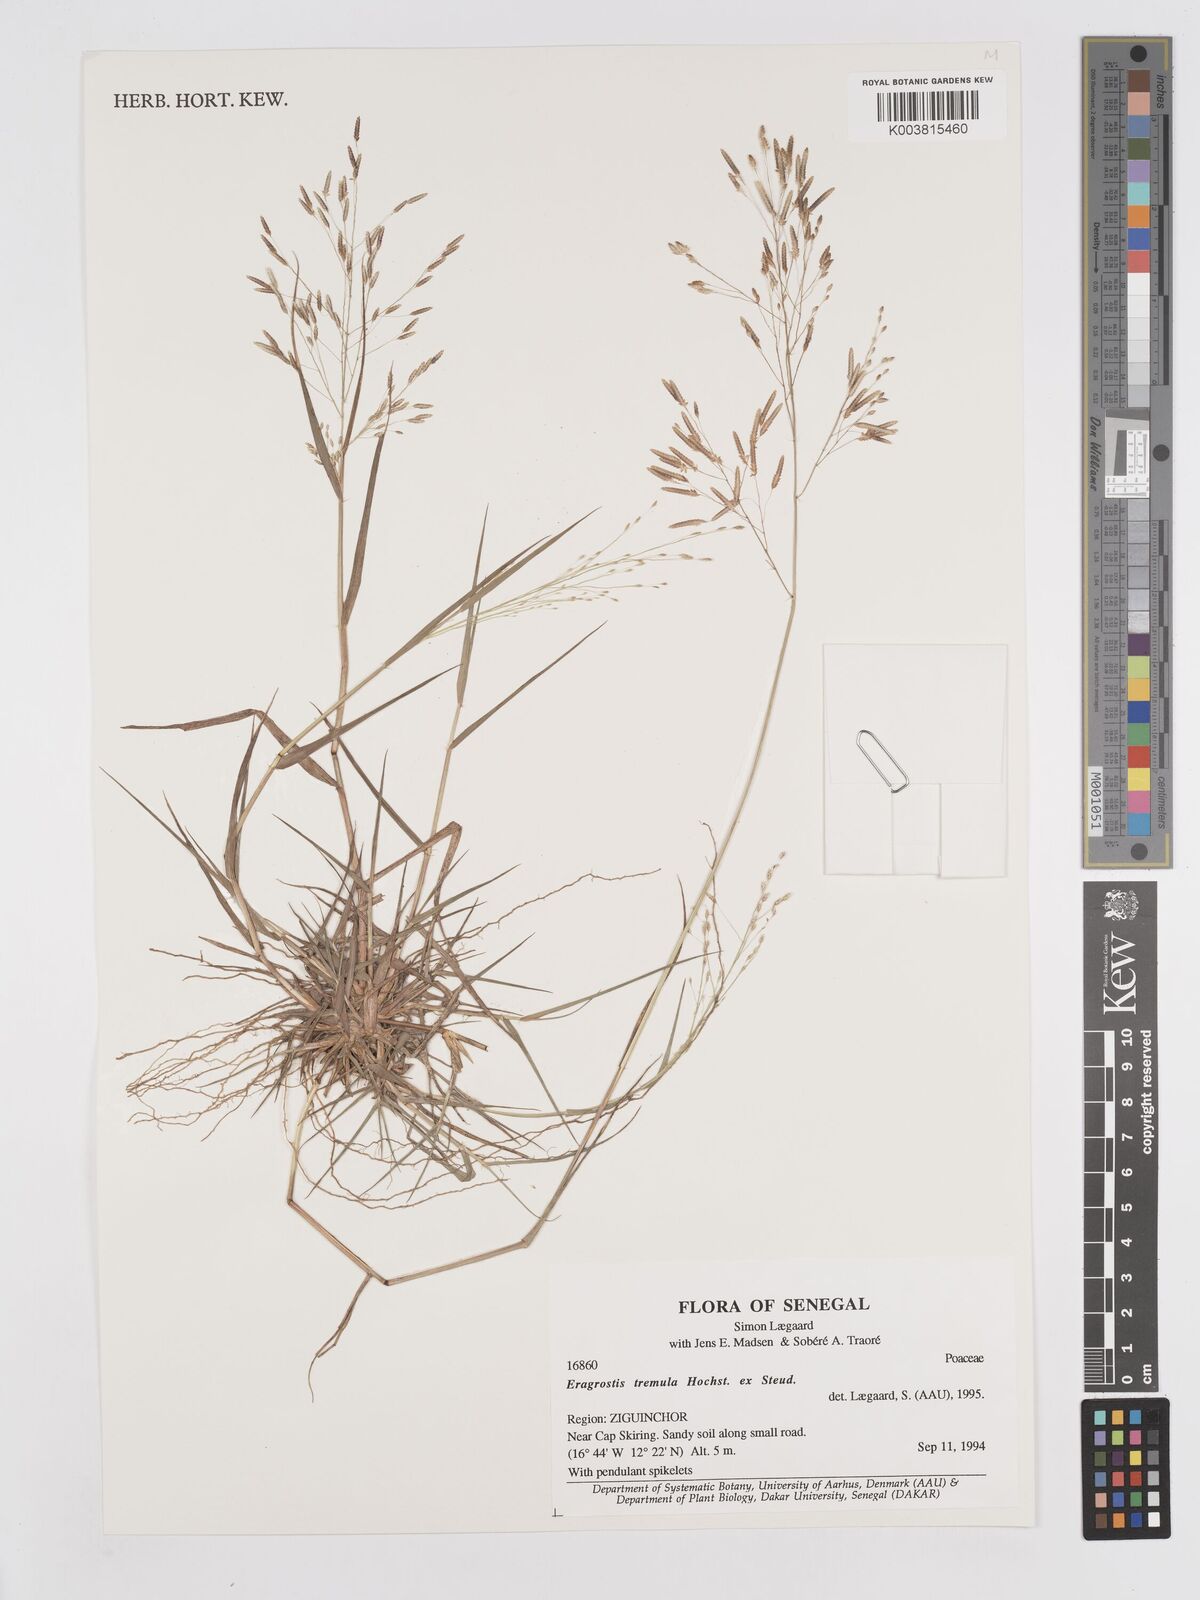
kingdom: Plantae
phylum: Tracheophyta
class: Liliopsida
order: Poales
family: Poaceae
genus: Eragrostis
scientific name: Eragrostis tremula
